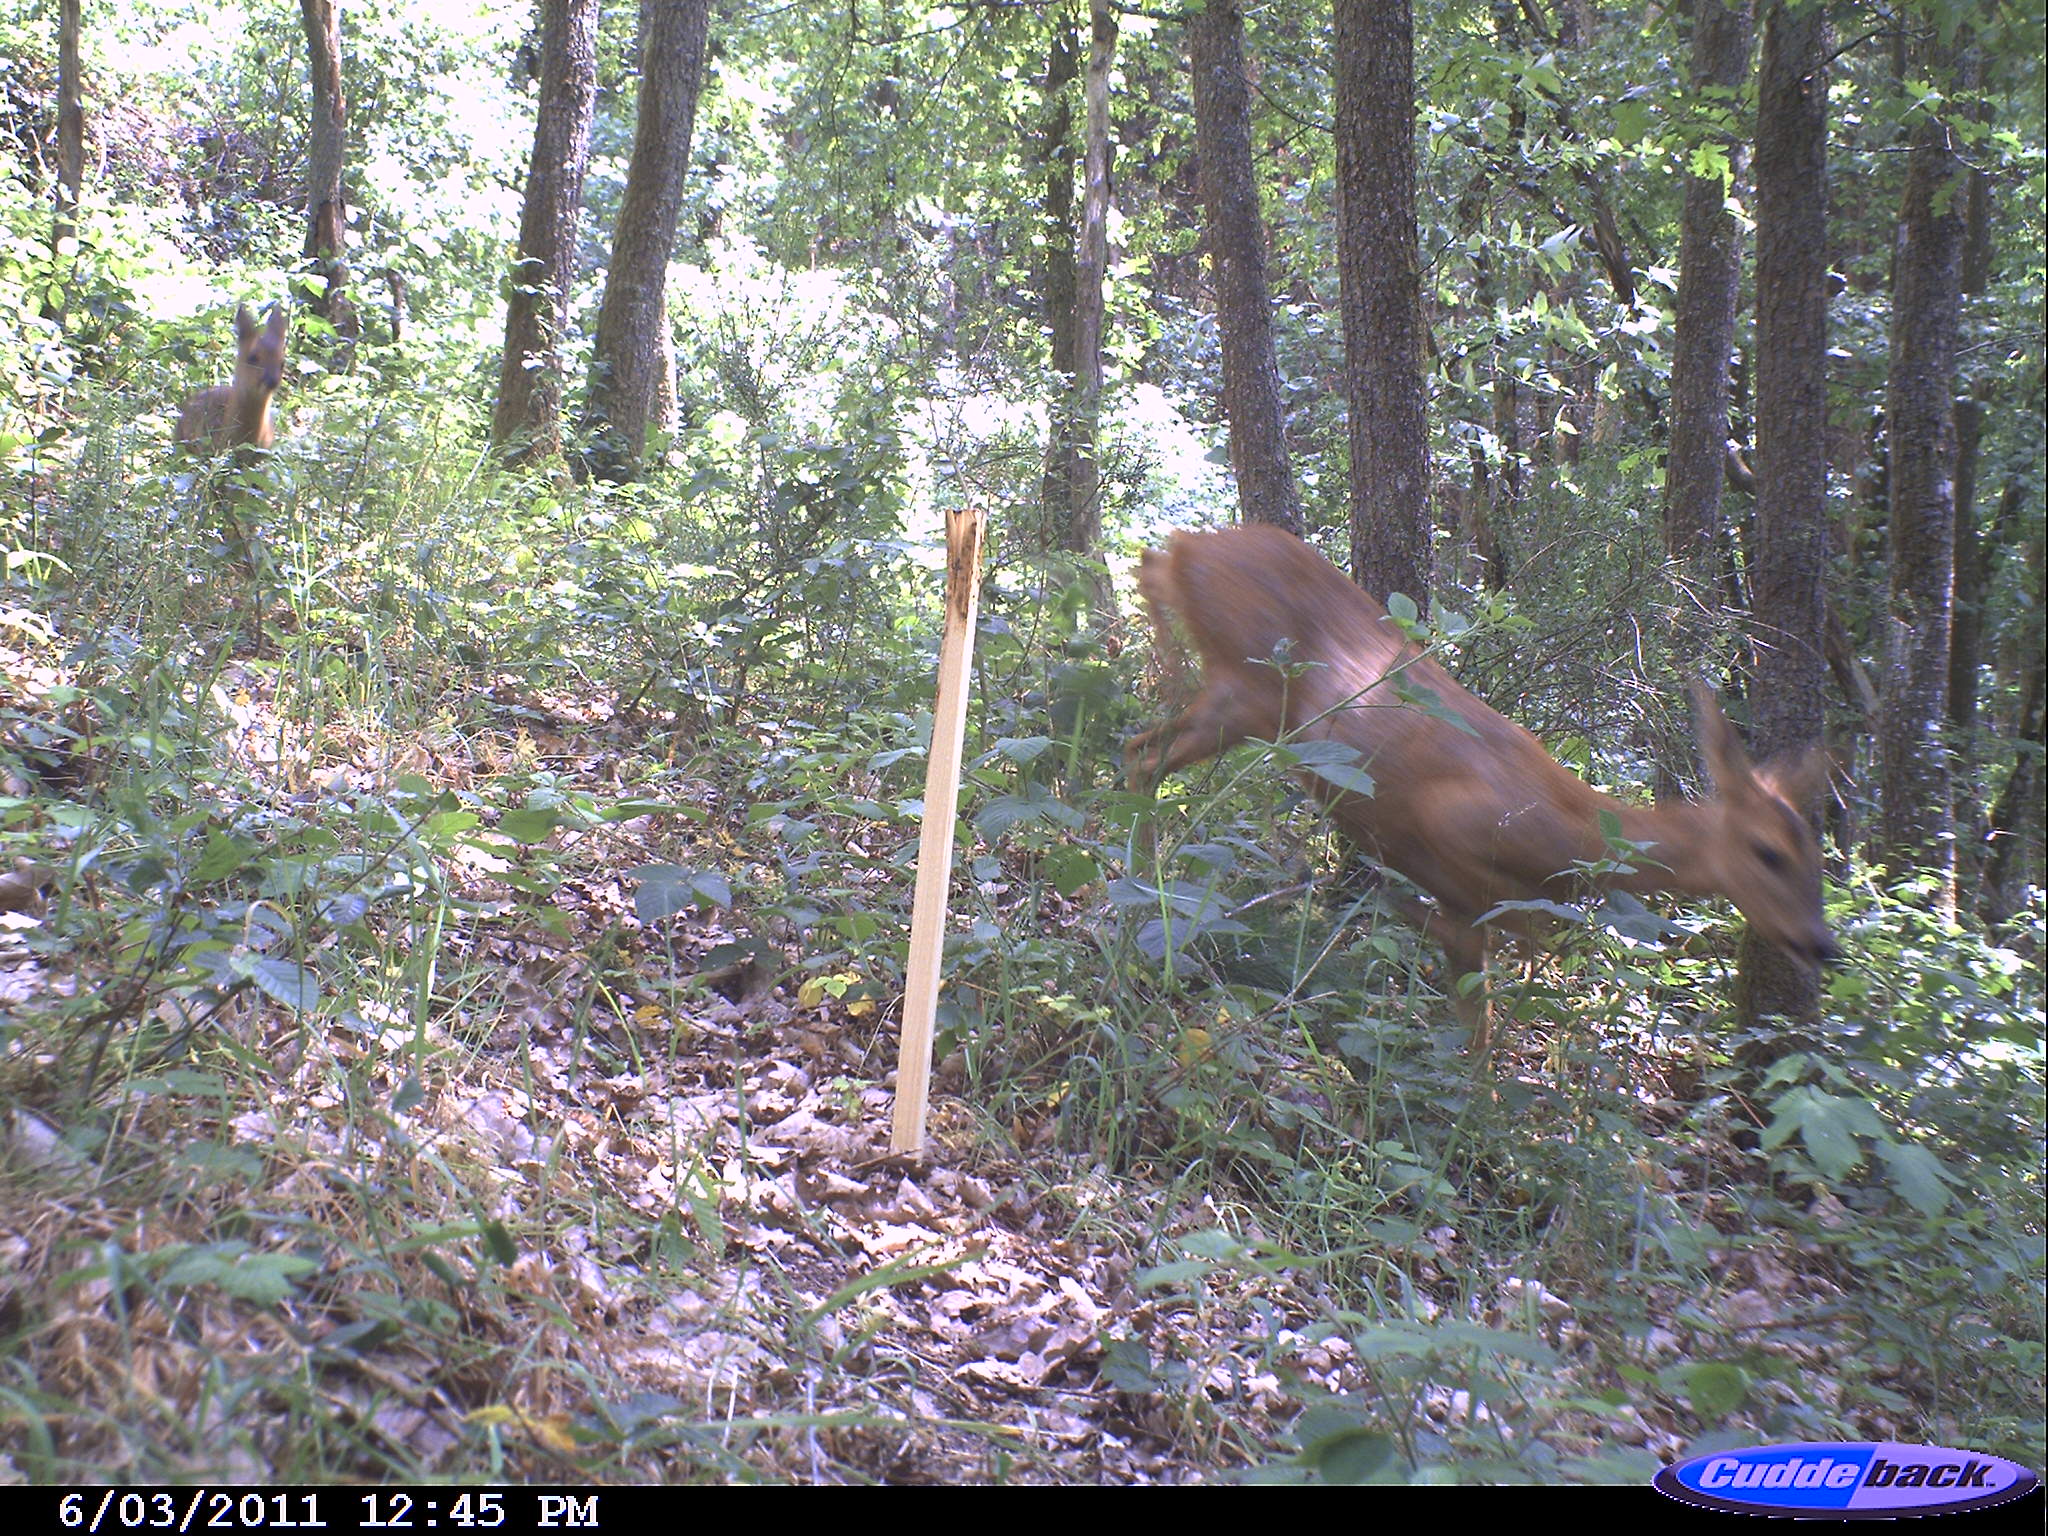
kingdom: Animalia
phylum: Chordata
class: Mammalia
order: Artiodactyla
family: Cervidae
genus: Capreolus
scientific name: Capreolus capreolus
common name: Western roe deer
